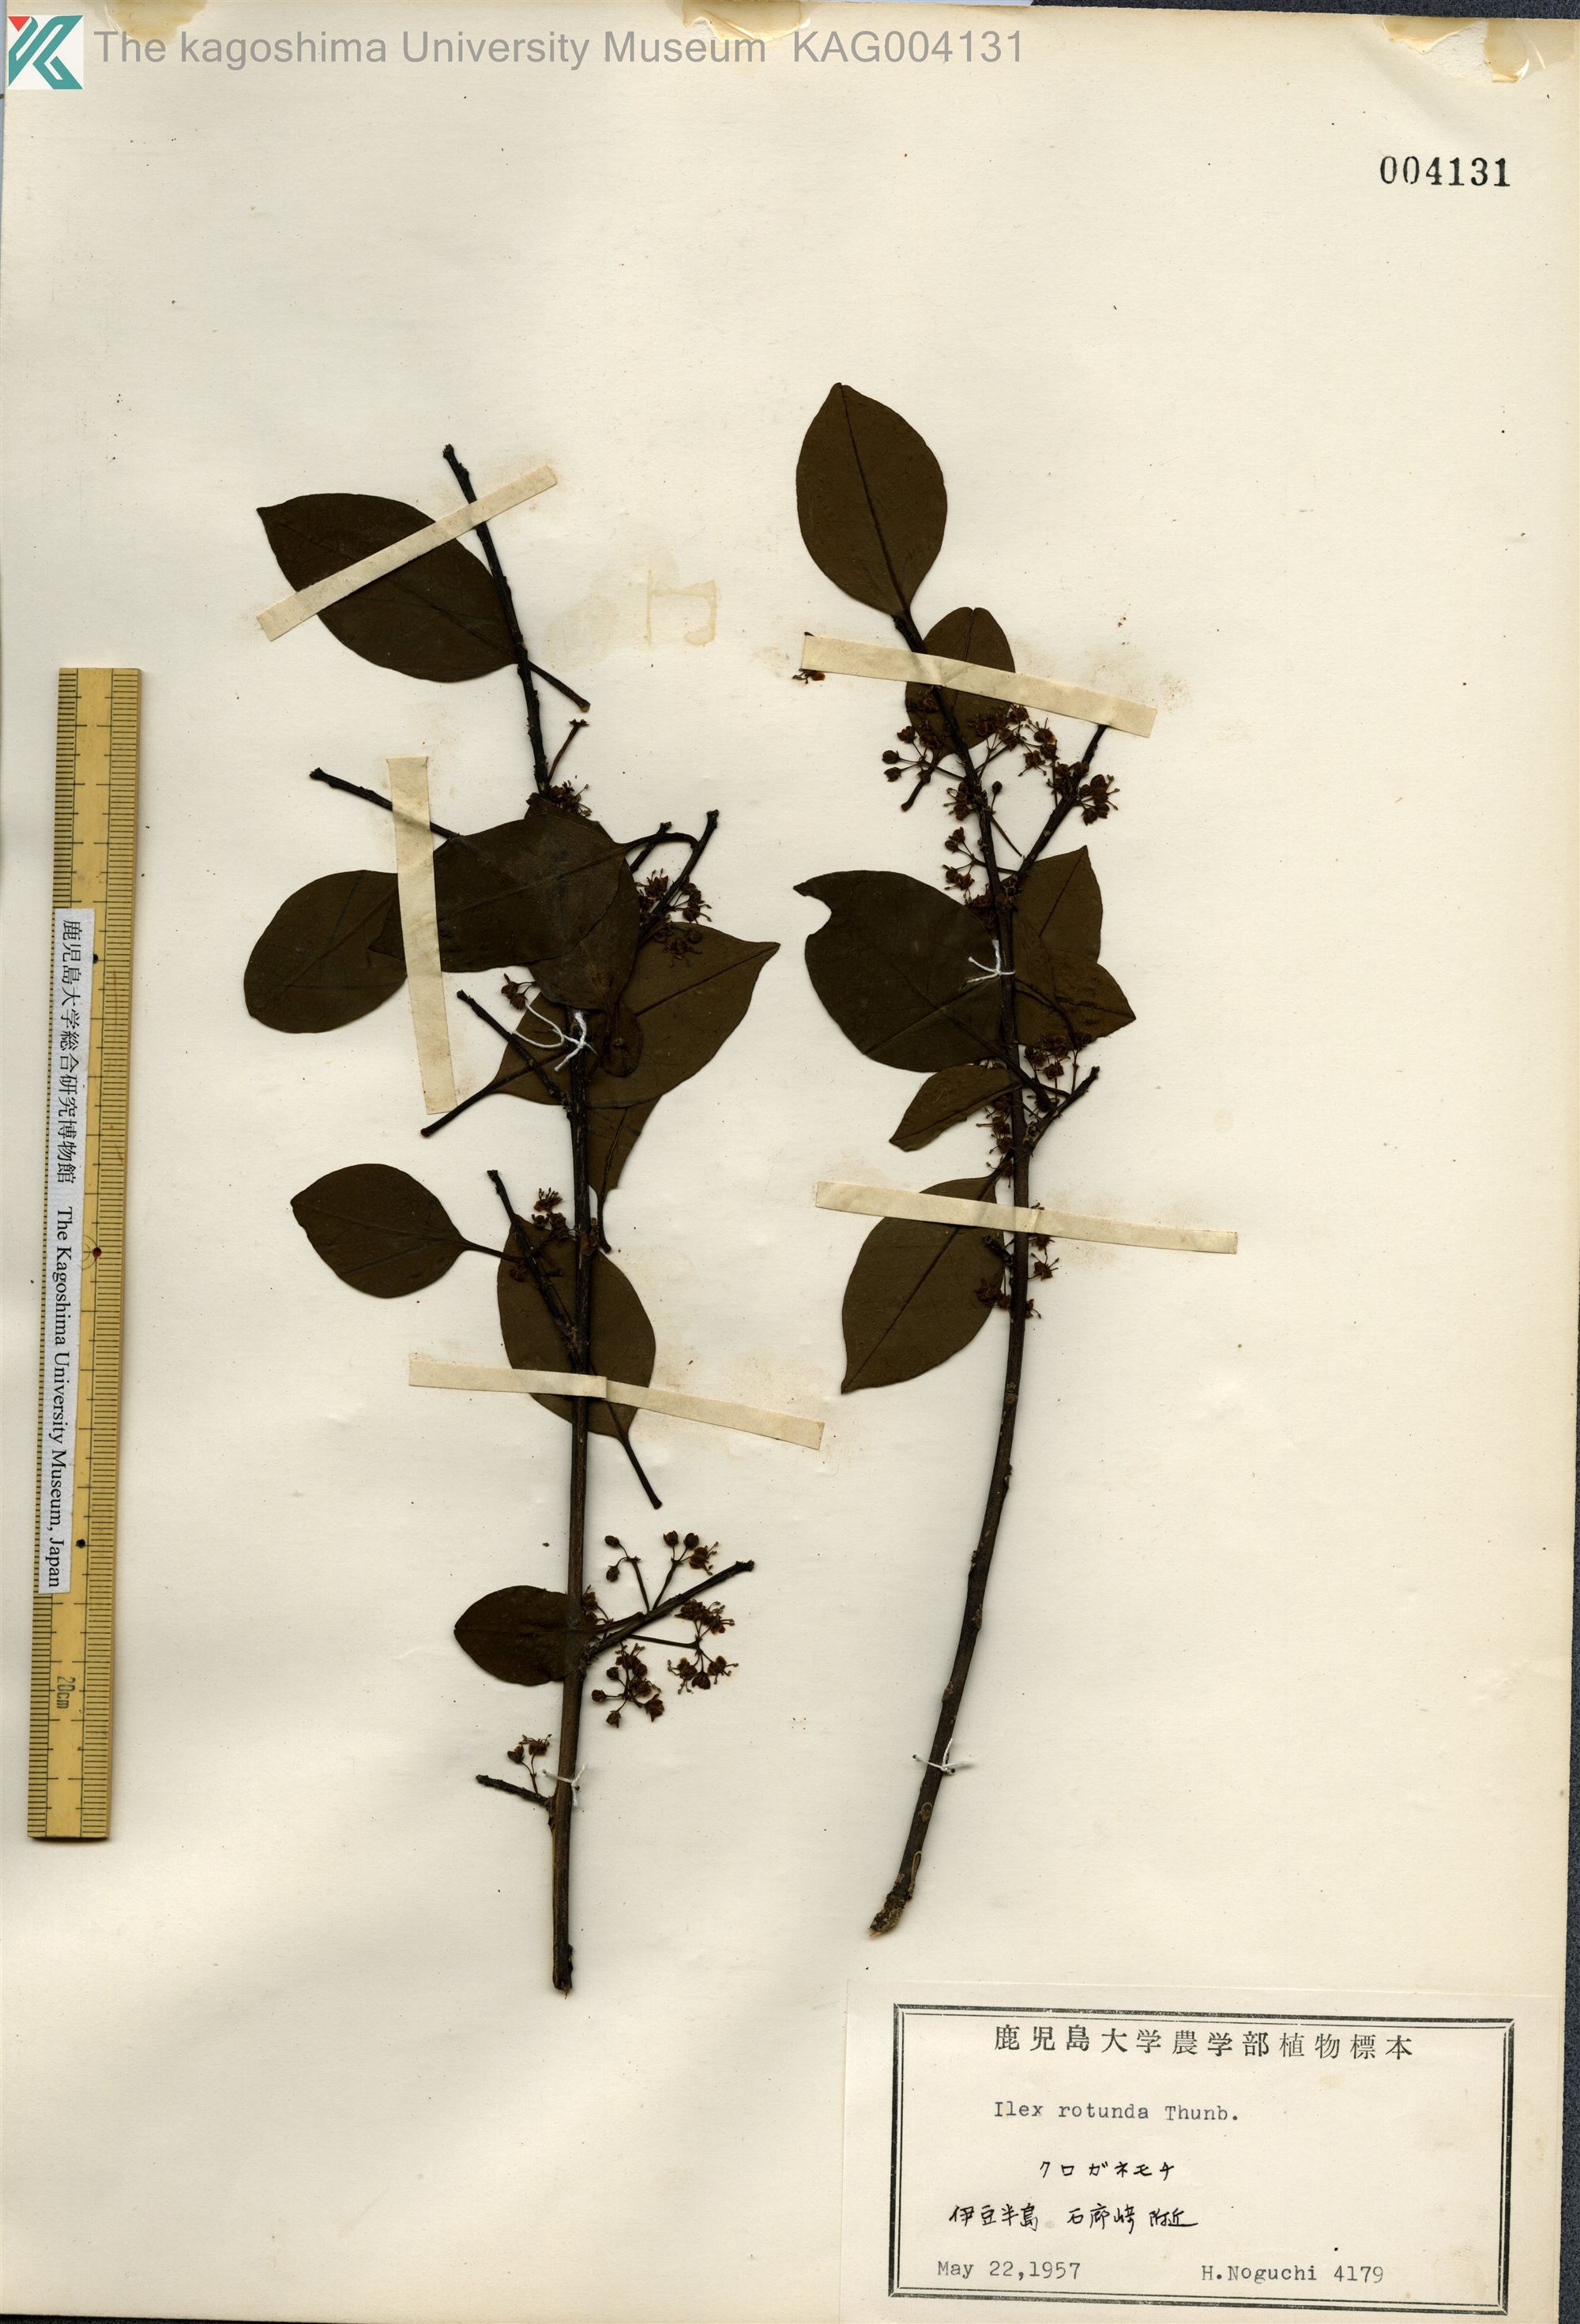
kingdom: Plantae
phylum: Tracheophyta
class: Magnoliopsida
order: Aquifoliales
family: Aquifoliaceae
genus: Ilex
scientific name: Ilex rotunda
